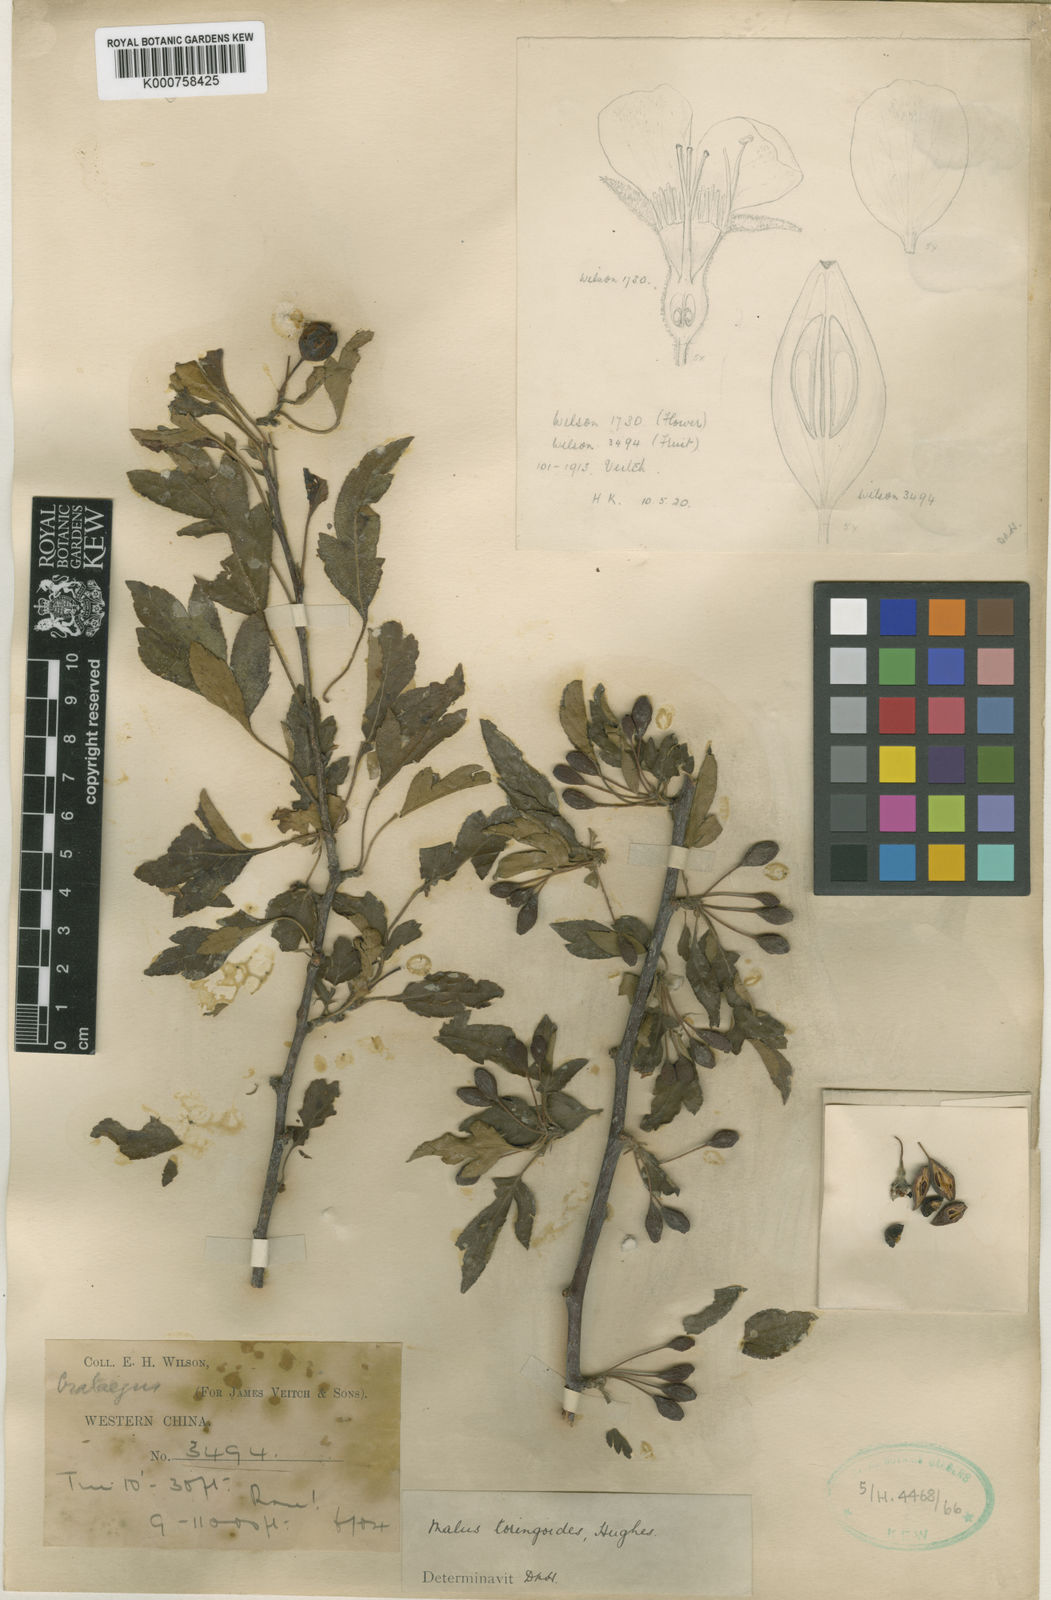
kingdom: Plantae
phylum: Tracheophyta
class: Magnoliopsida
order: Rosales
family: Rosaceae
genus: Malus
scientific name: Malus toringoides
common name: Cut-leaf crab apple
